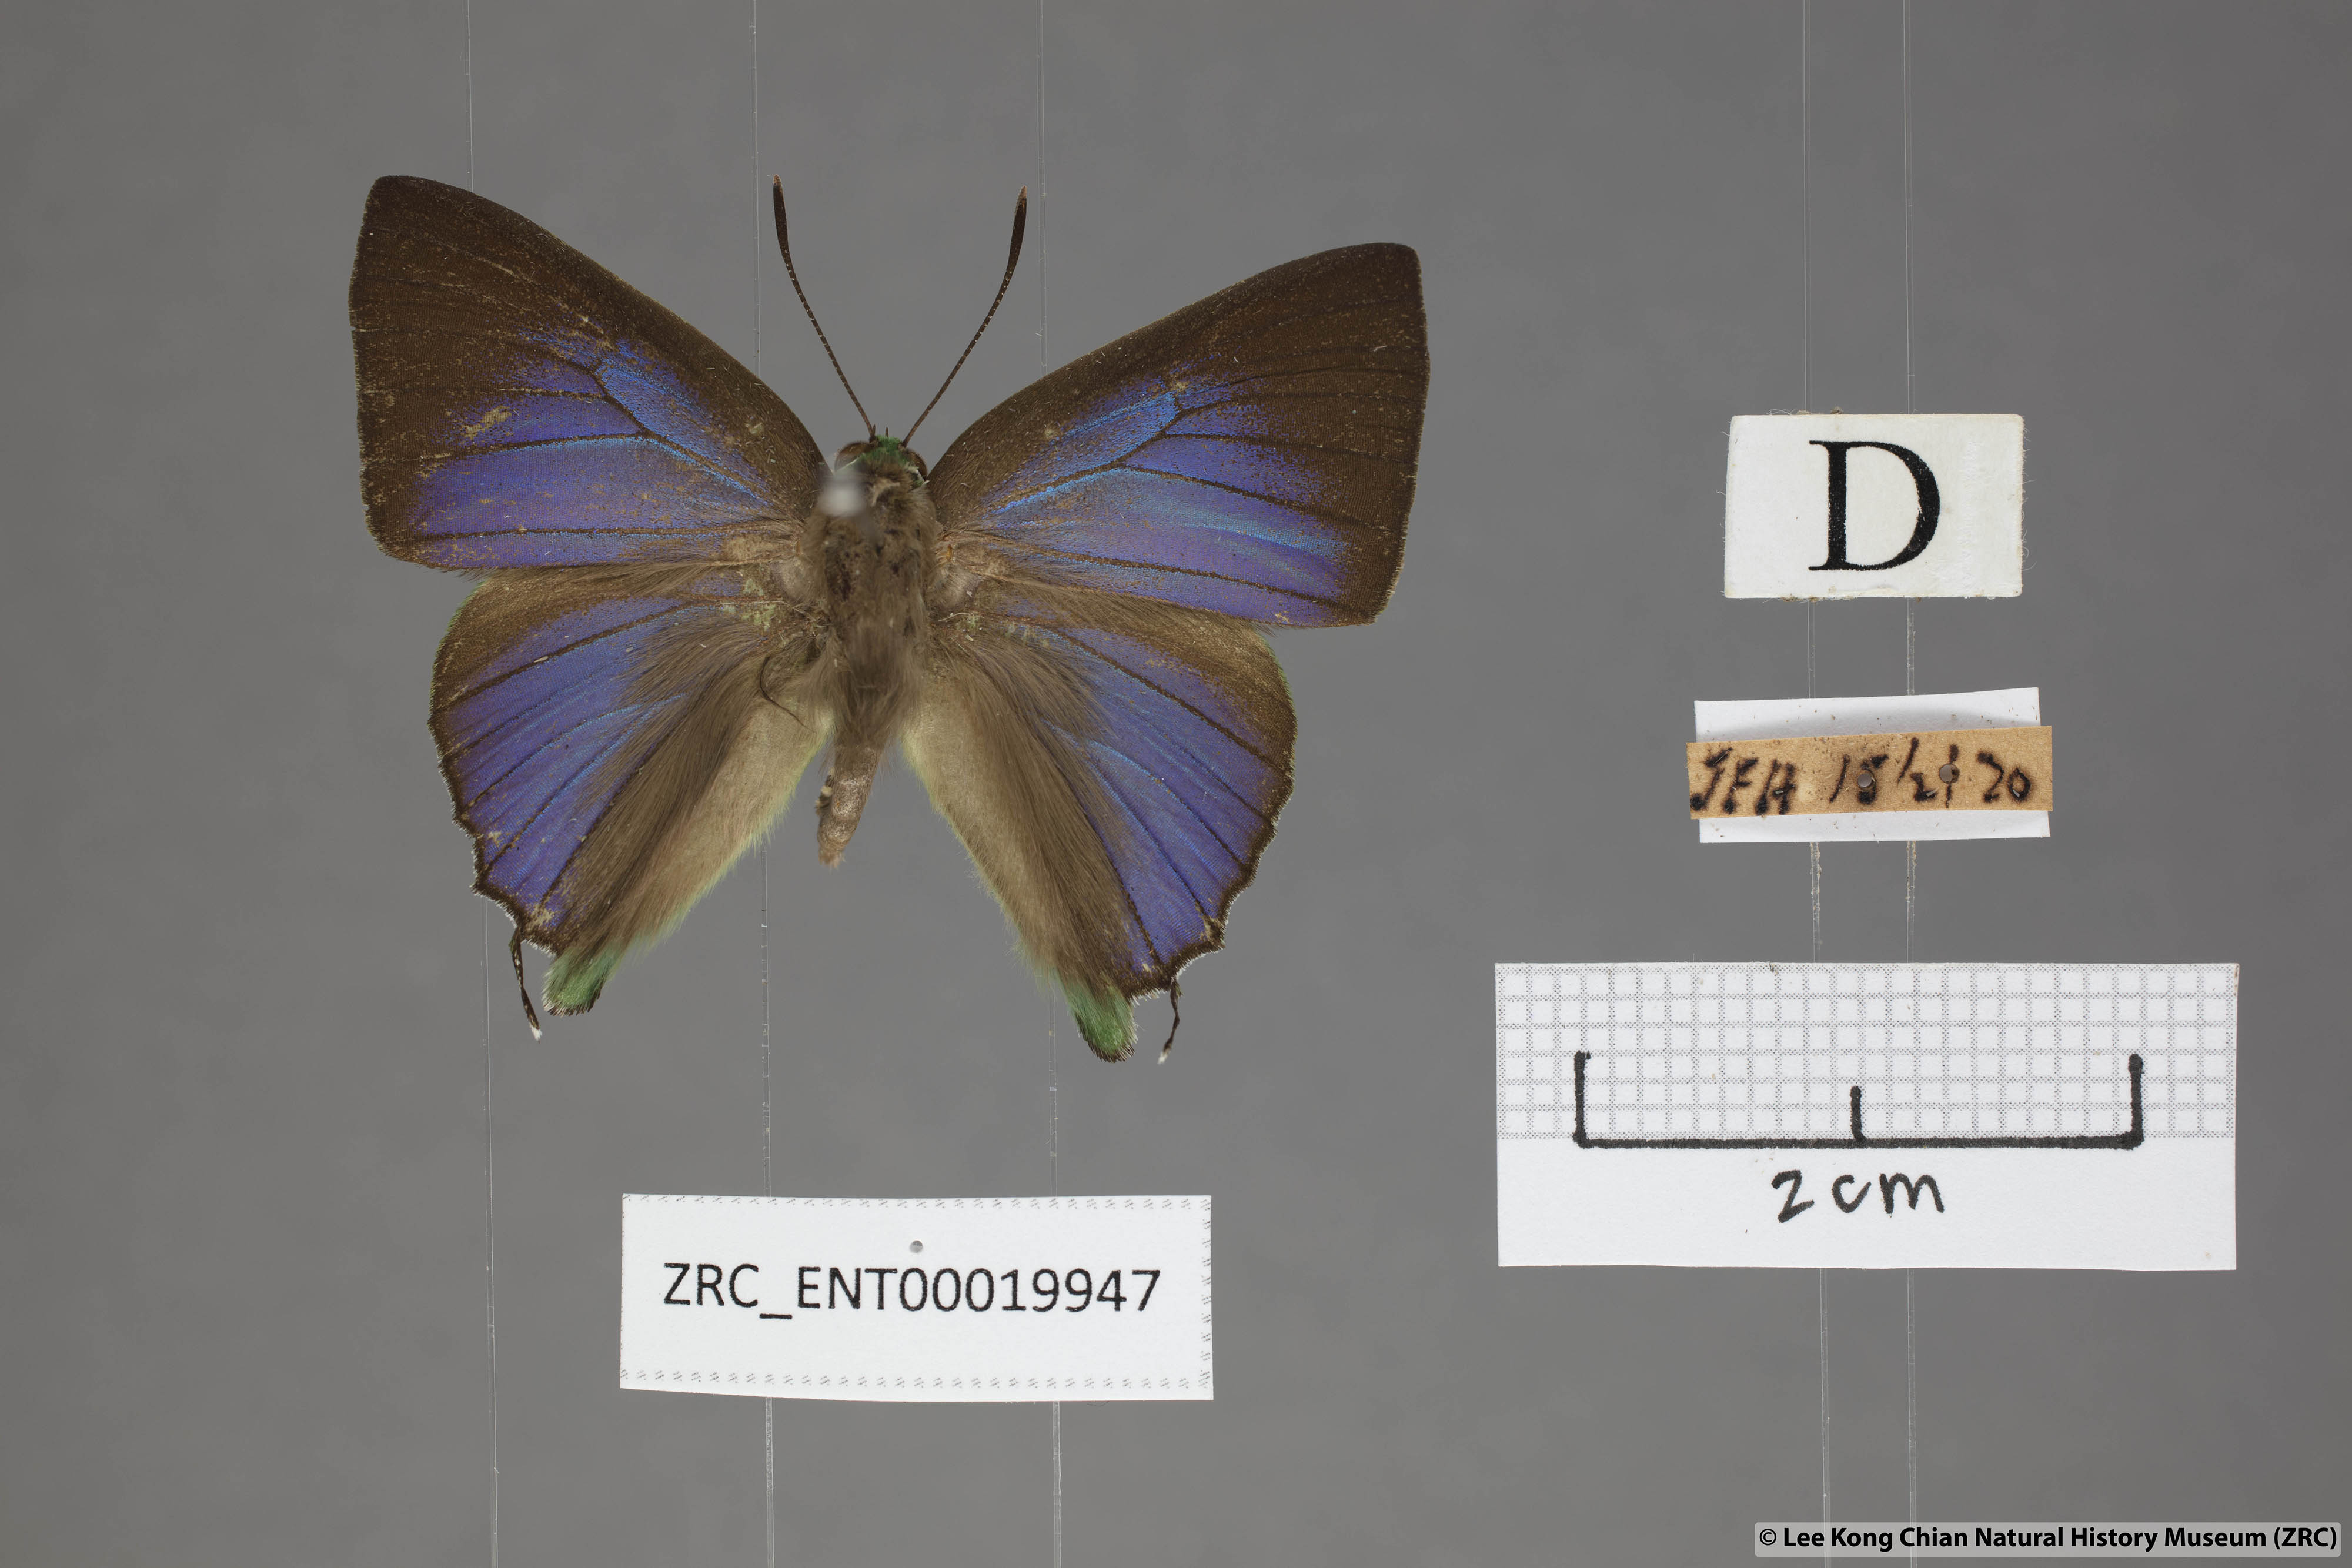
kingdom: Animalia
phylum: Arthropoda
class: Insecta
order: Lepidoptera
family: Lycaenidae
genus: Artipe
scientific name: Artipe eryx
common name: Green flash
